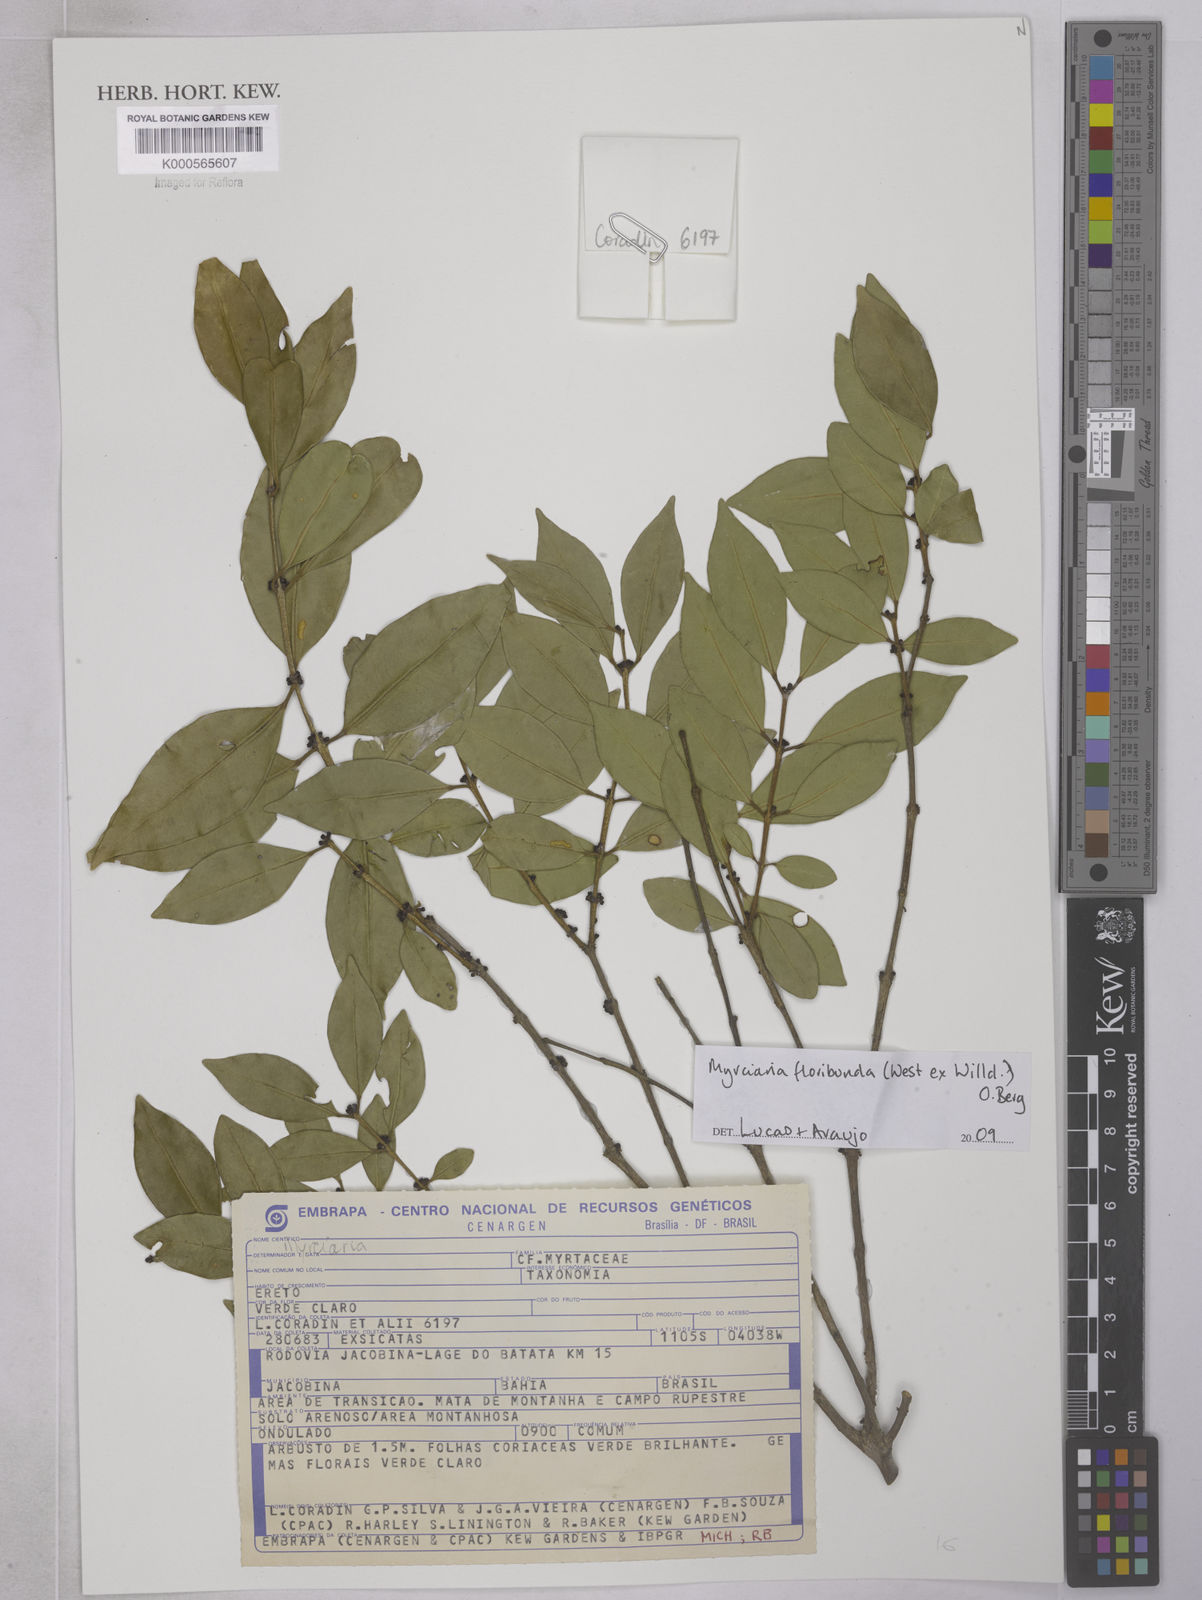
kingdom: Plantae
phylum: Tracheophyta
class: Magnoliopsida
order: Myrtales
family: Myrtaceae
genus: Myrciaria
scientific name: Myrciaria floribunda
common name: Guavaberry
